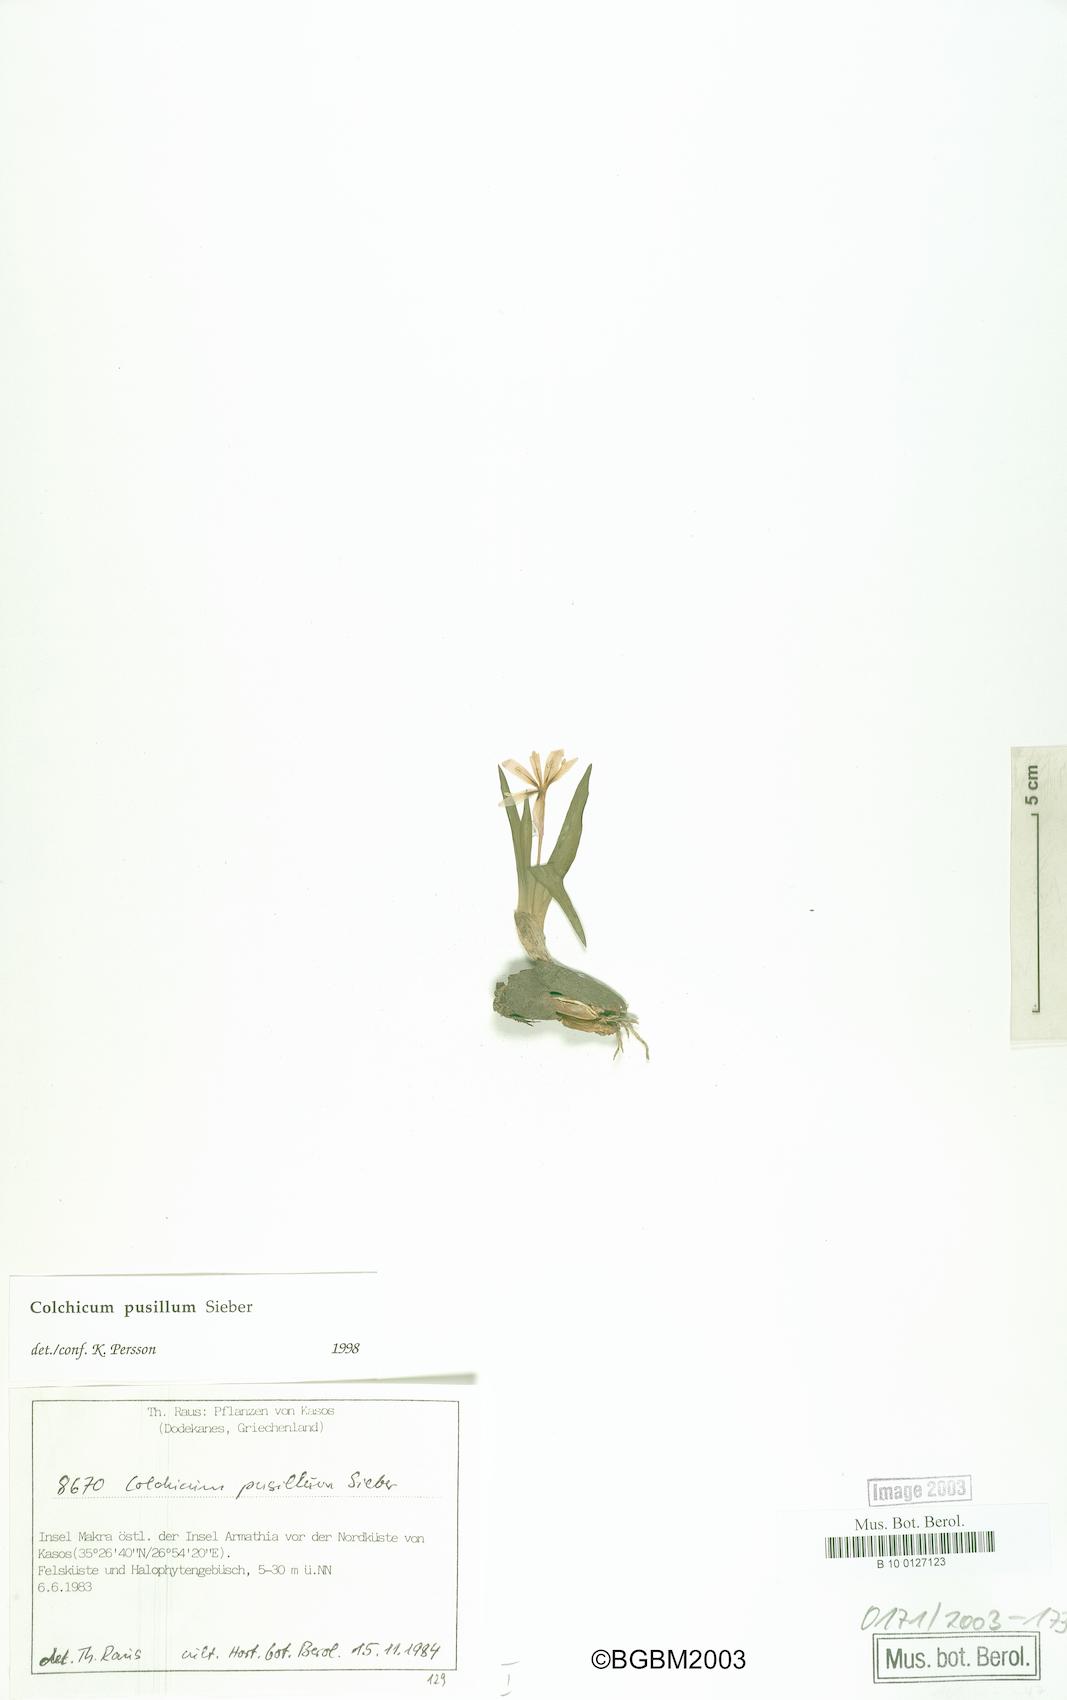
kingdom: Plantae
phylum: Tracheophyta
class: Liliopsida
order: Liliales
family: Colchicaceae
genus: Colchicum
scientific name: Colchicum pusillum
